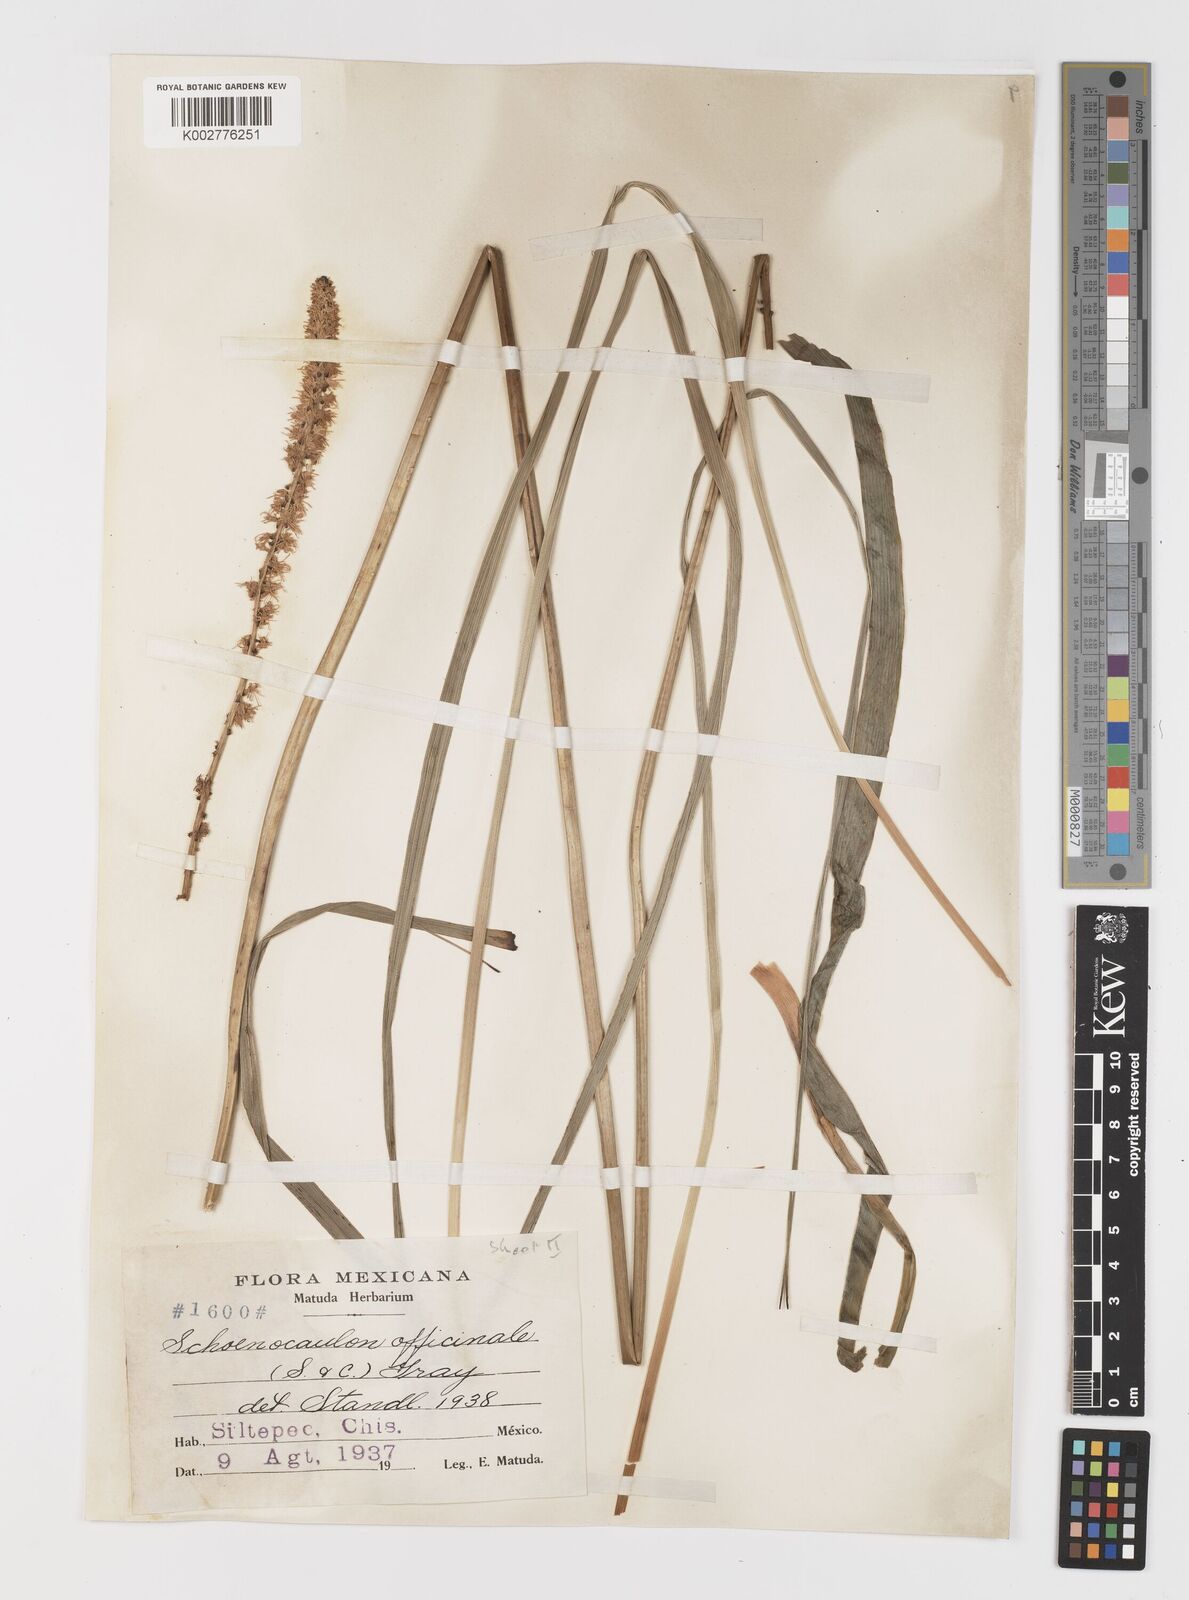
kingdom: Plantae
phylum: Tracheophyta
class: Liliopsida
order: Liliales
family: Melanthiaceae
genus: Schoenocaulon
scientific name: Schoenocaulon officinale
